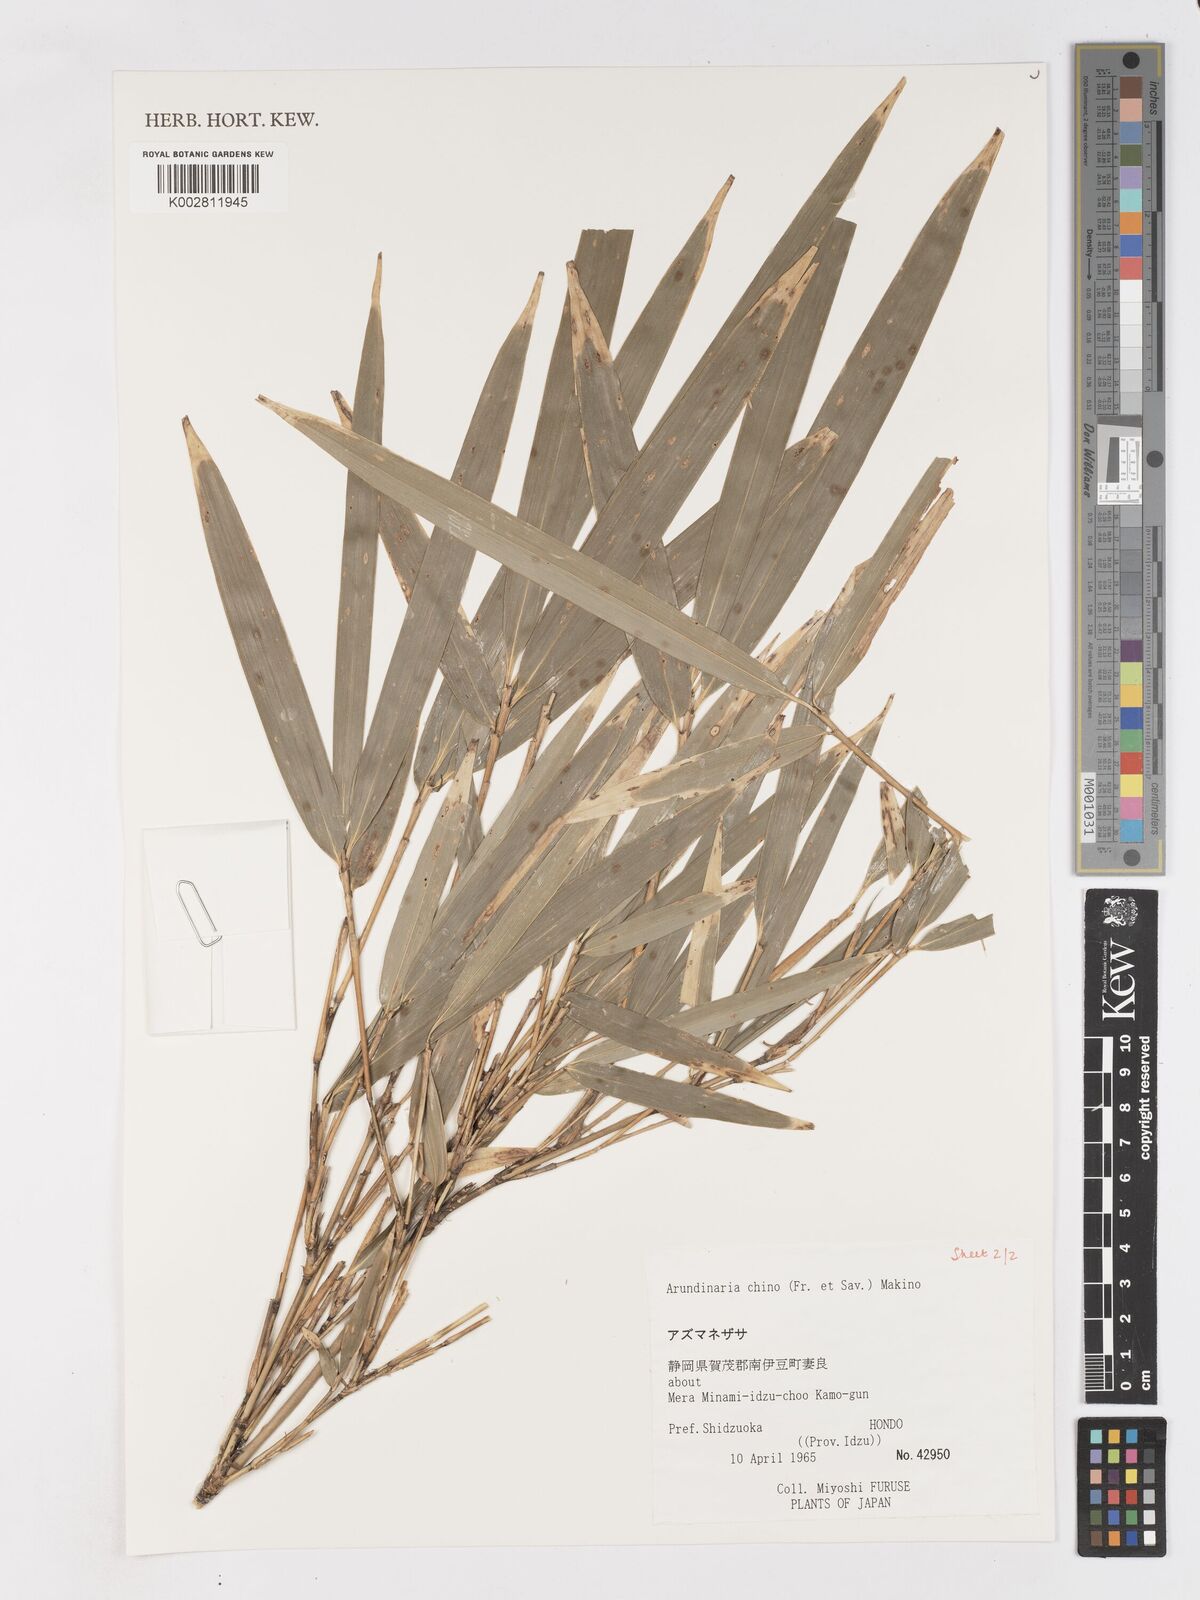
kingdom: Plantae
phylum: Tracheophyta
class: Liliopsida
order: Poales
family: Poaceae
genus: Pleioblastus
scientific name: Pleioblastus argenteostriatus
